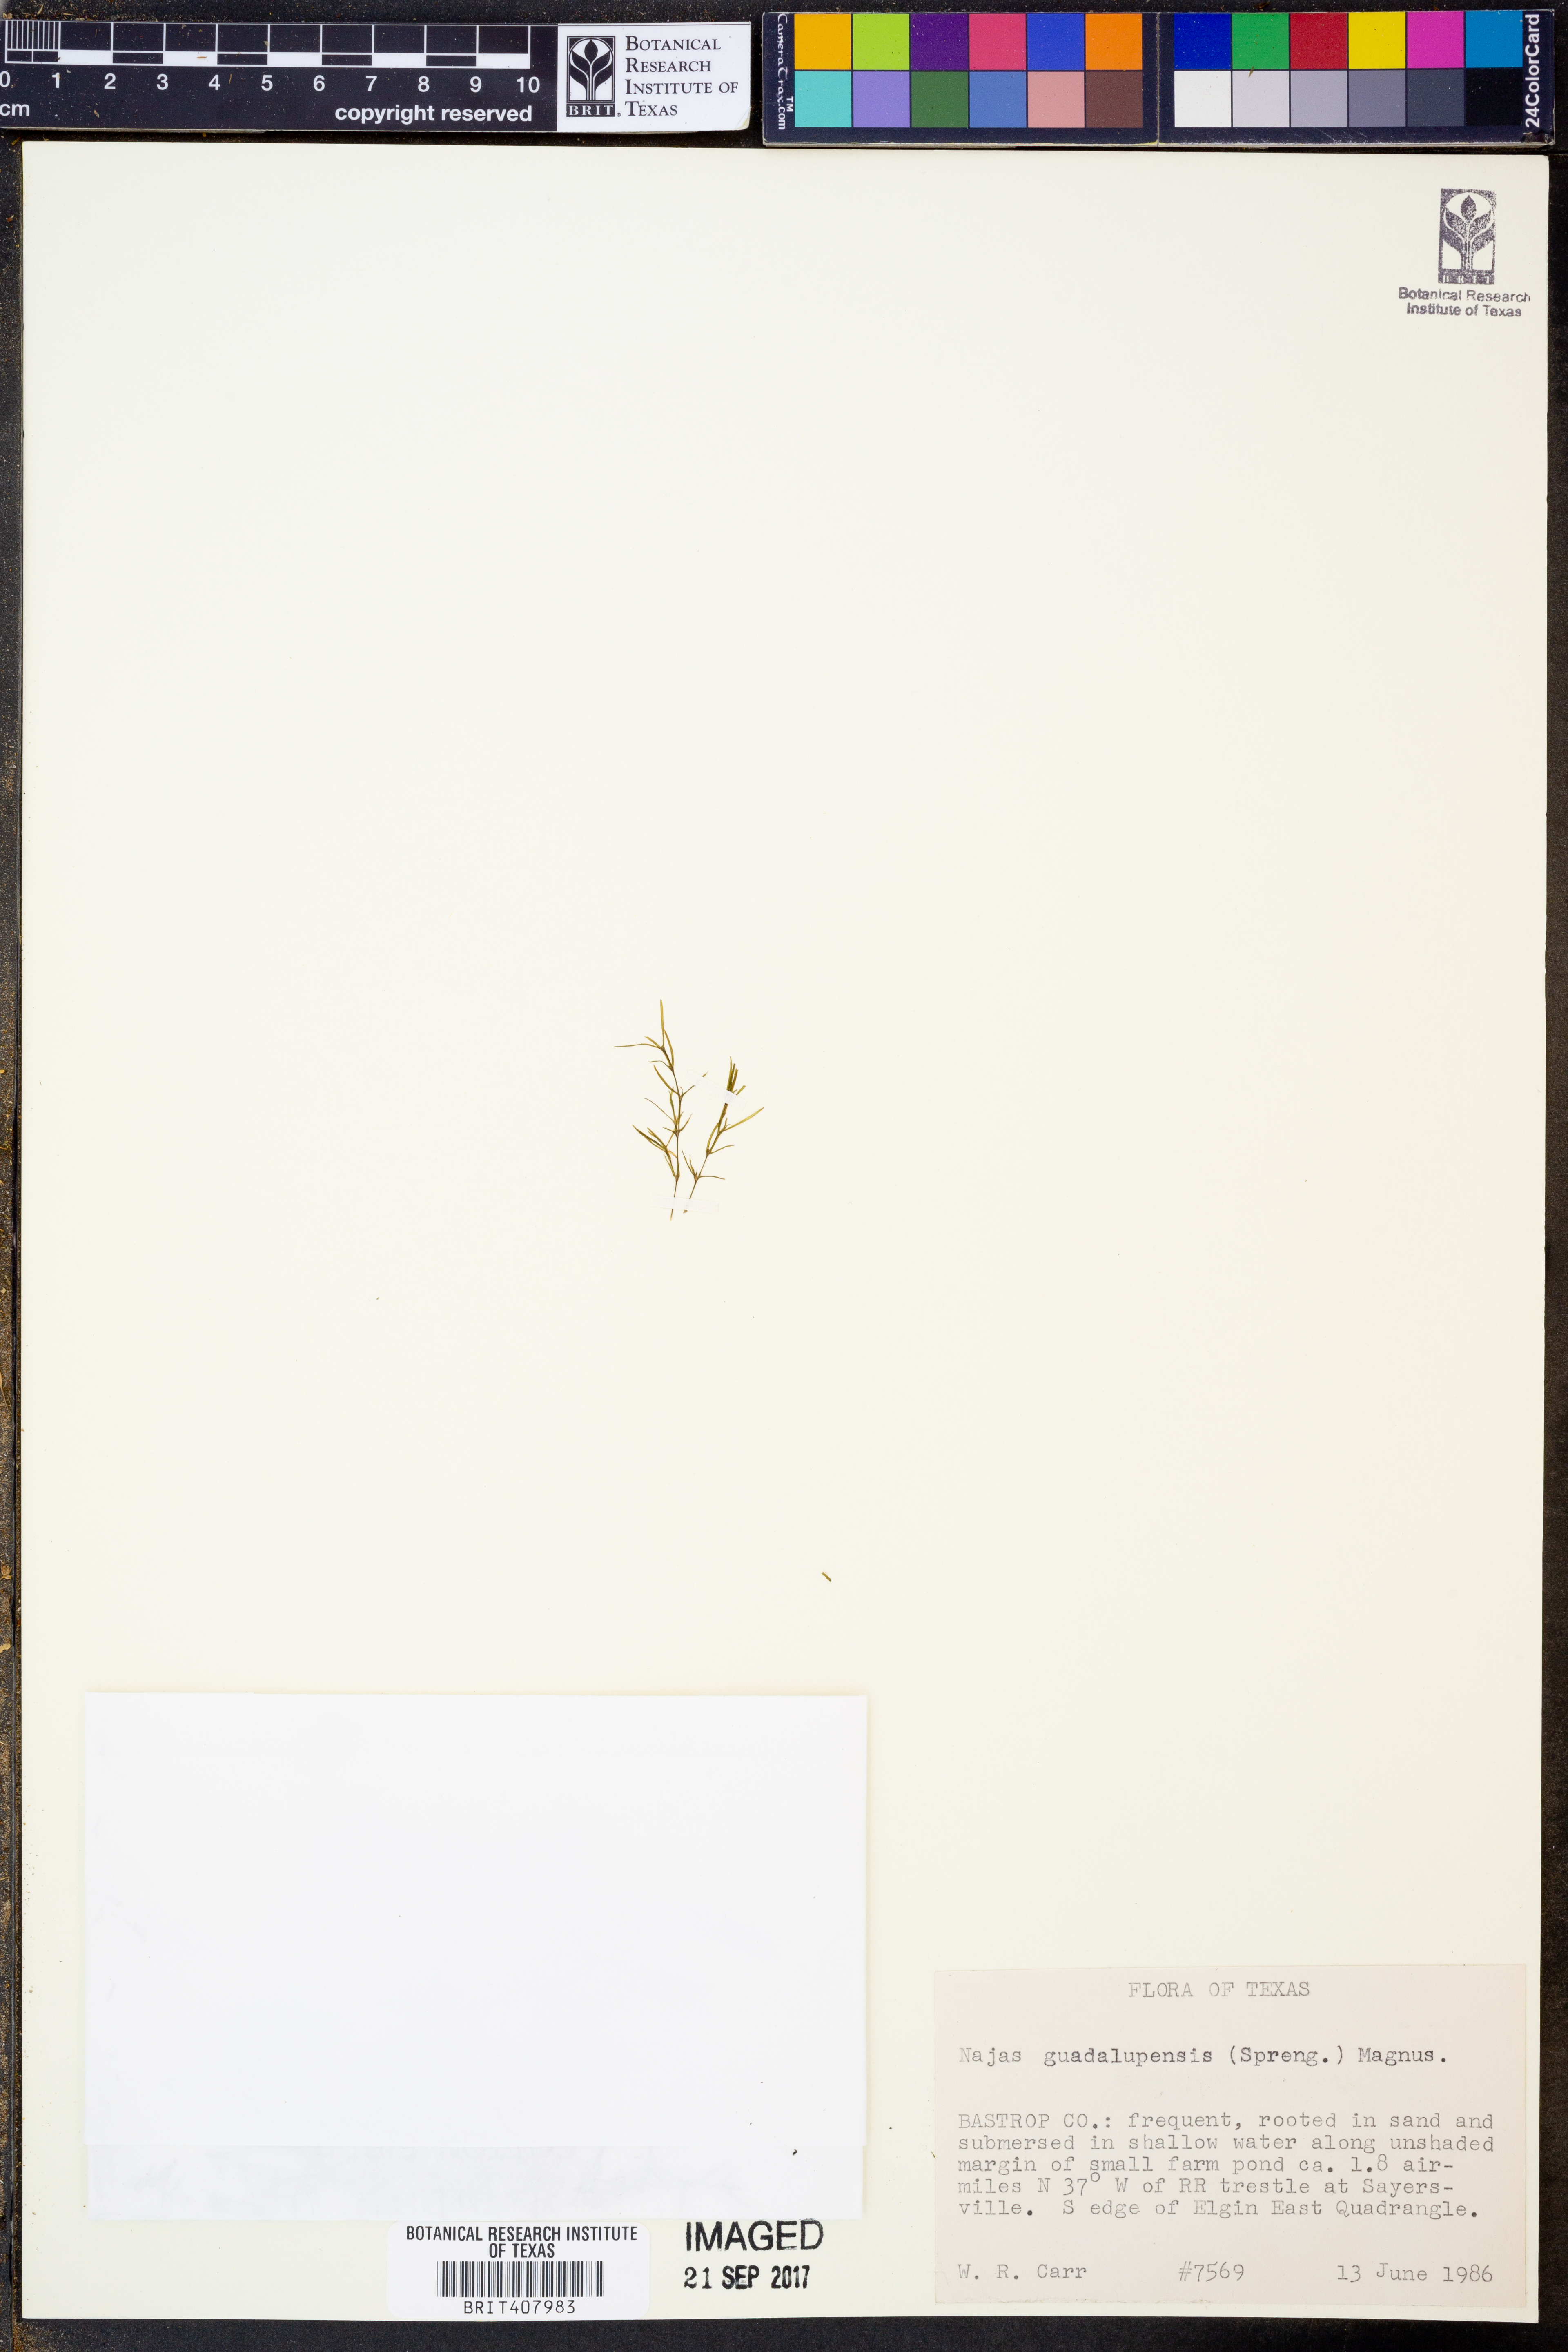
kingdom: Plantae
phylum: Tracheophyta
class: Liliopsida
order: Alismatales
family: Hydrocharitaceae
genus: Najas
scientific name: Najas guadalupensis
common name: Southern naiad
